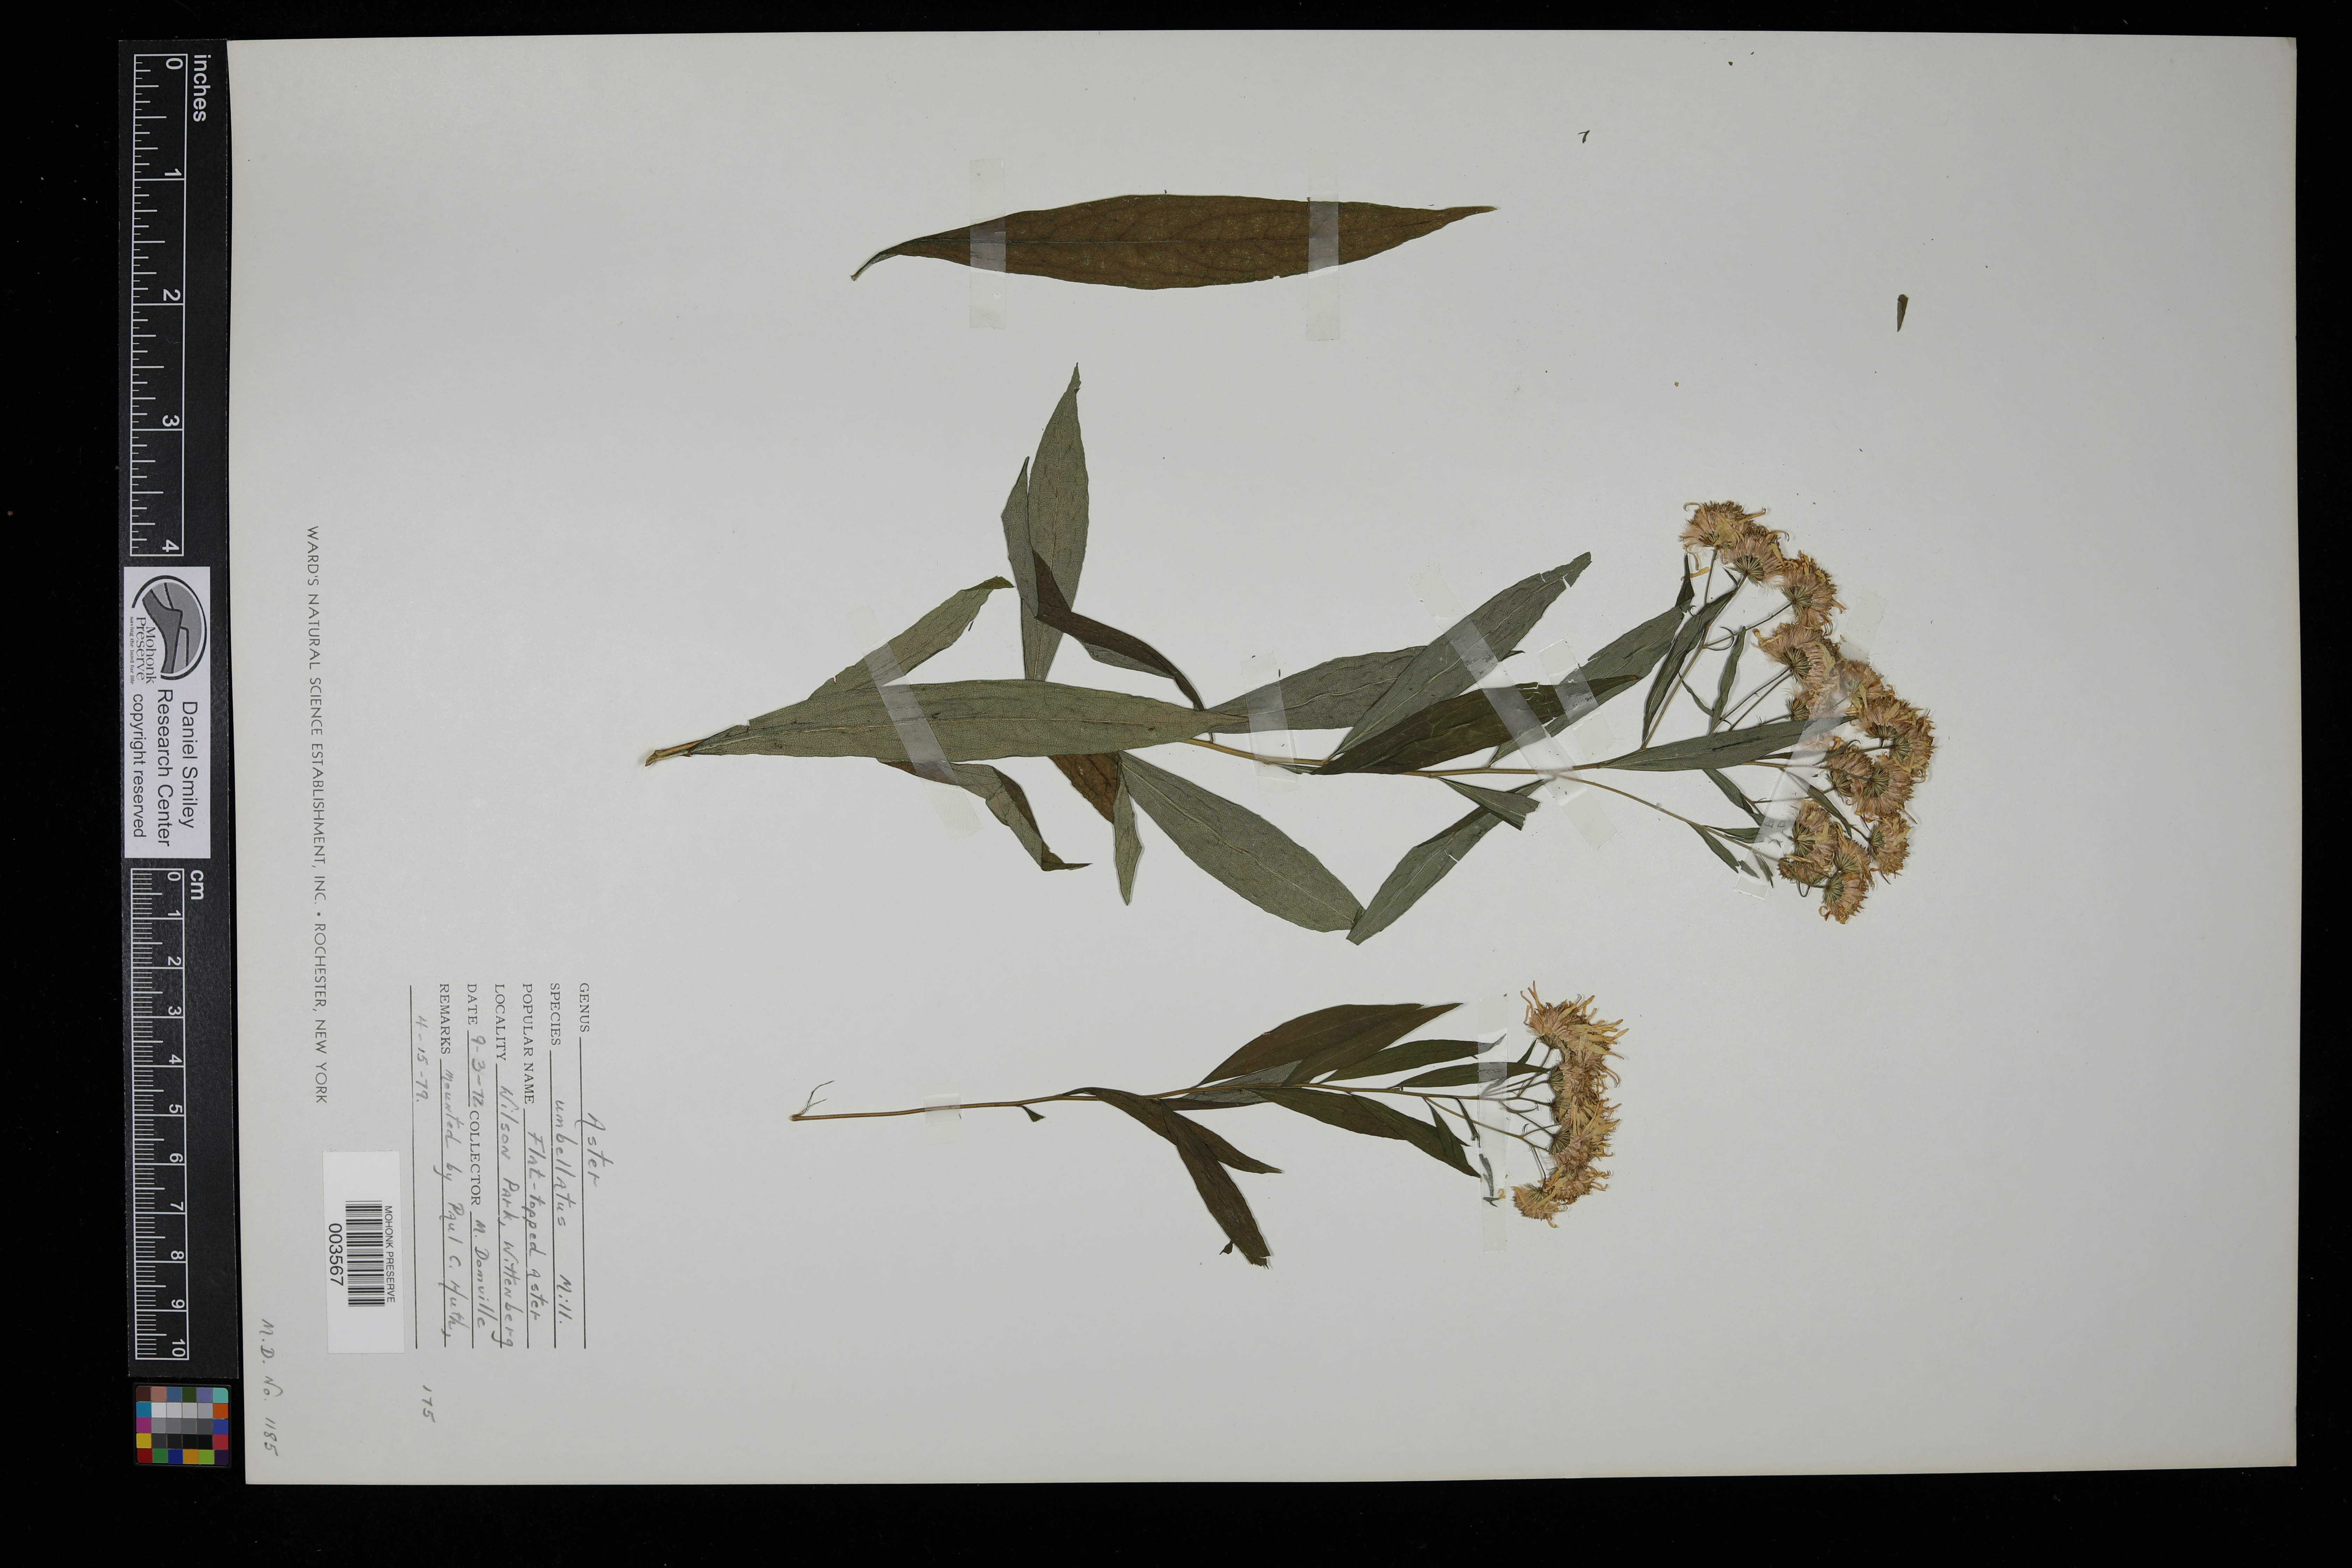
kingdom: Plantae
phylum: Tracheophyta
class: Magnoliopsida
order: Asterales
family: Asteraceae
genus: Doellingeria
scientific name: Doellingeria umbellata
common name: Flat-top white aster
